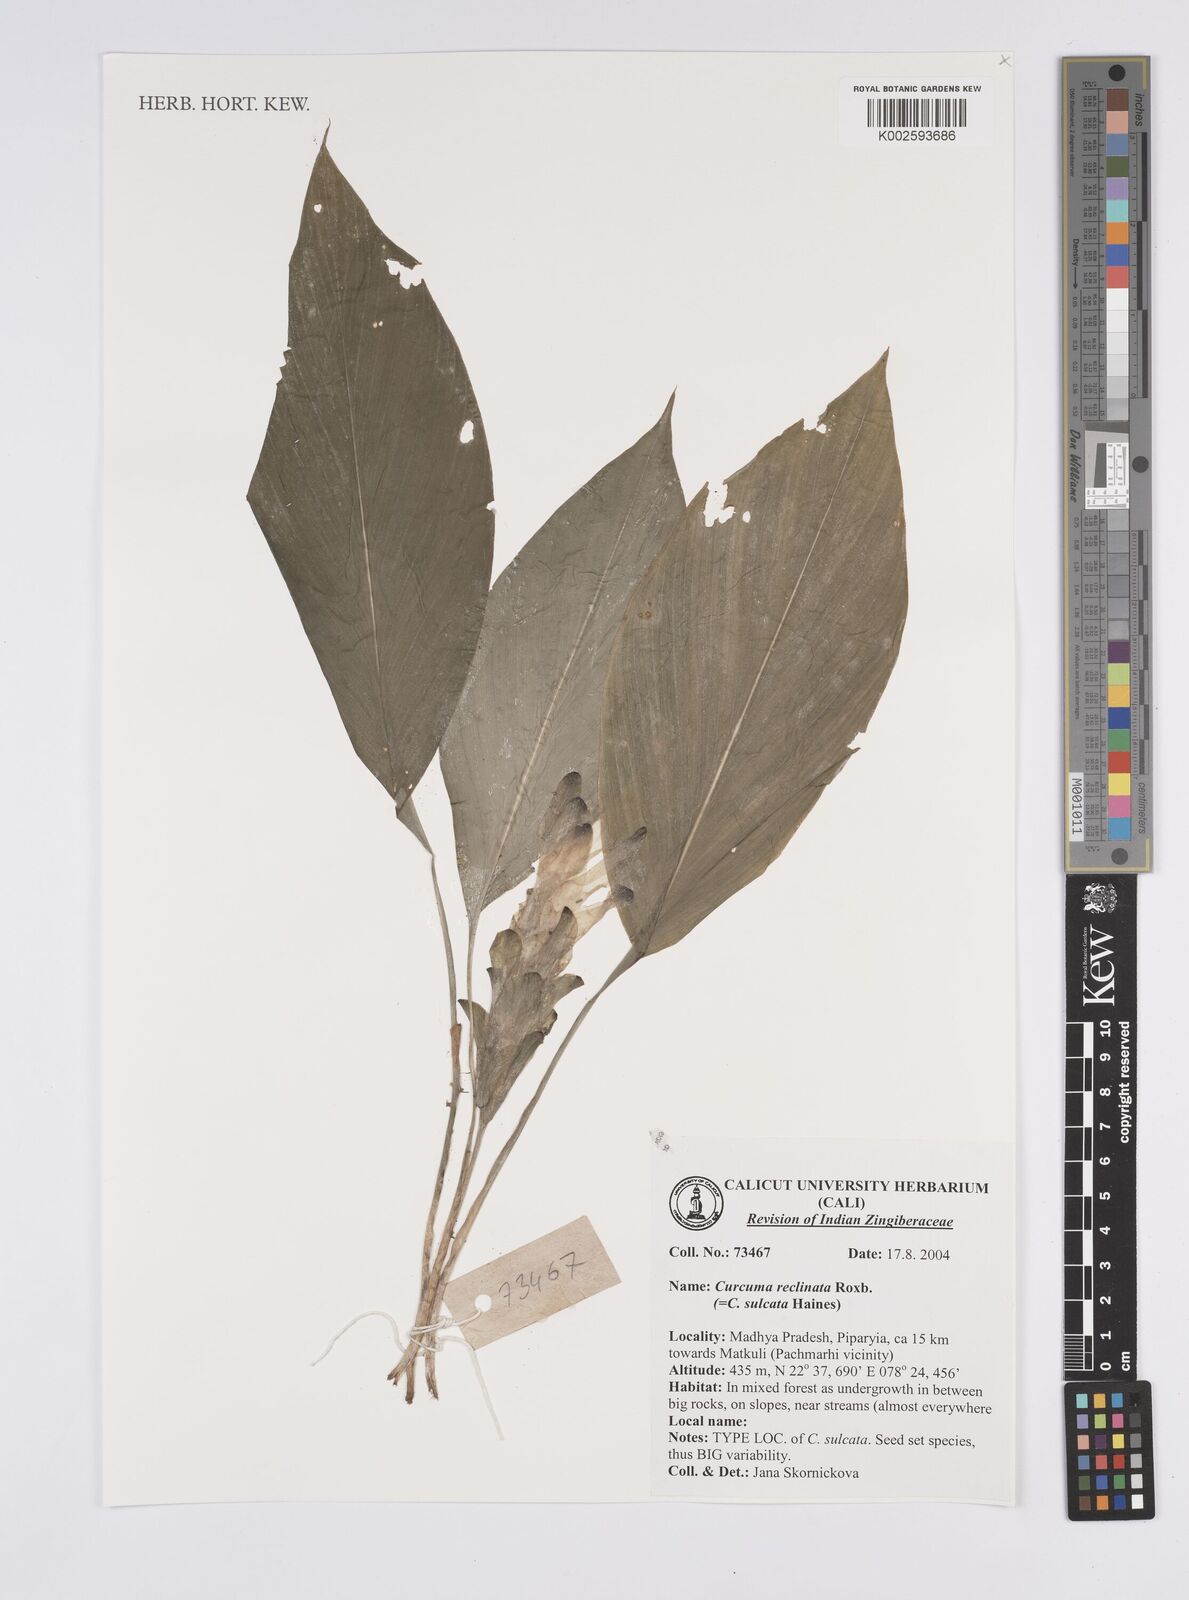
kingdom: Plantae
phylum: Tracheophyta
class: Liliopsida
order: Zingiberales
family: Zingiberaceae
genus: Curcuma
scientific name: Curcuma reclinata
